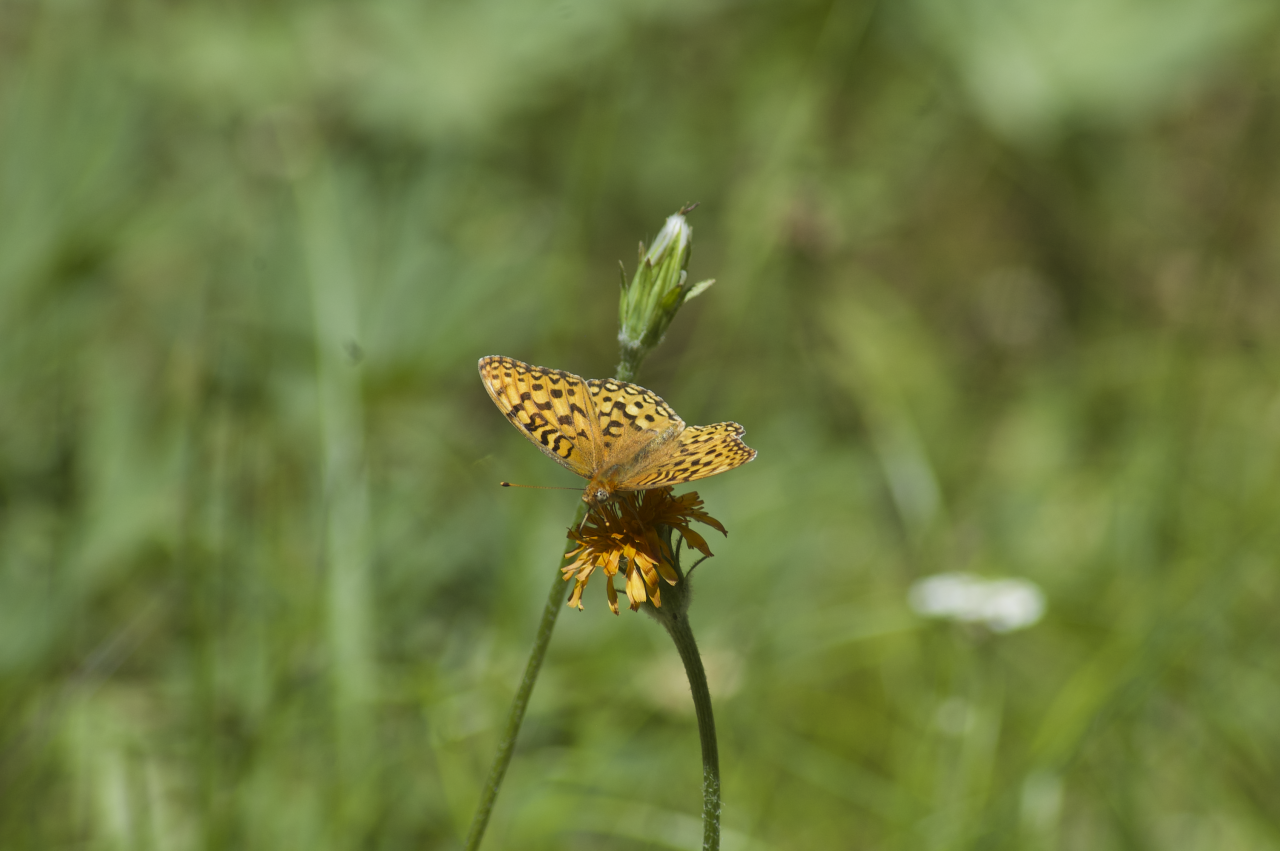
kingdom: Animalia
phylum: Arthropoda
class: Insecta
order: Lepidoptera
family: Nymphalidae
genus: Speyeria
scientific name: Speyeria coronis
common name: Coronis Fritillary
